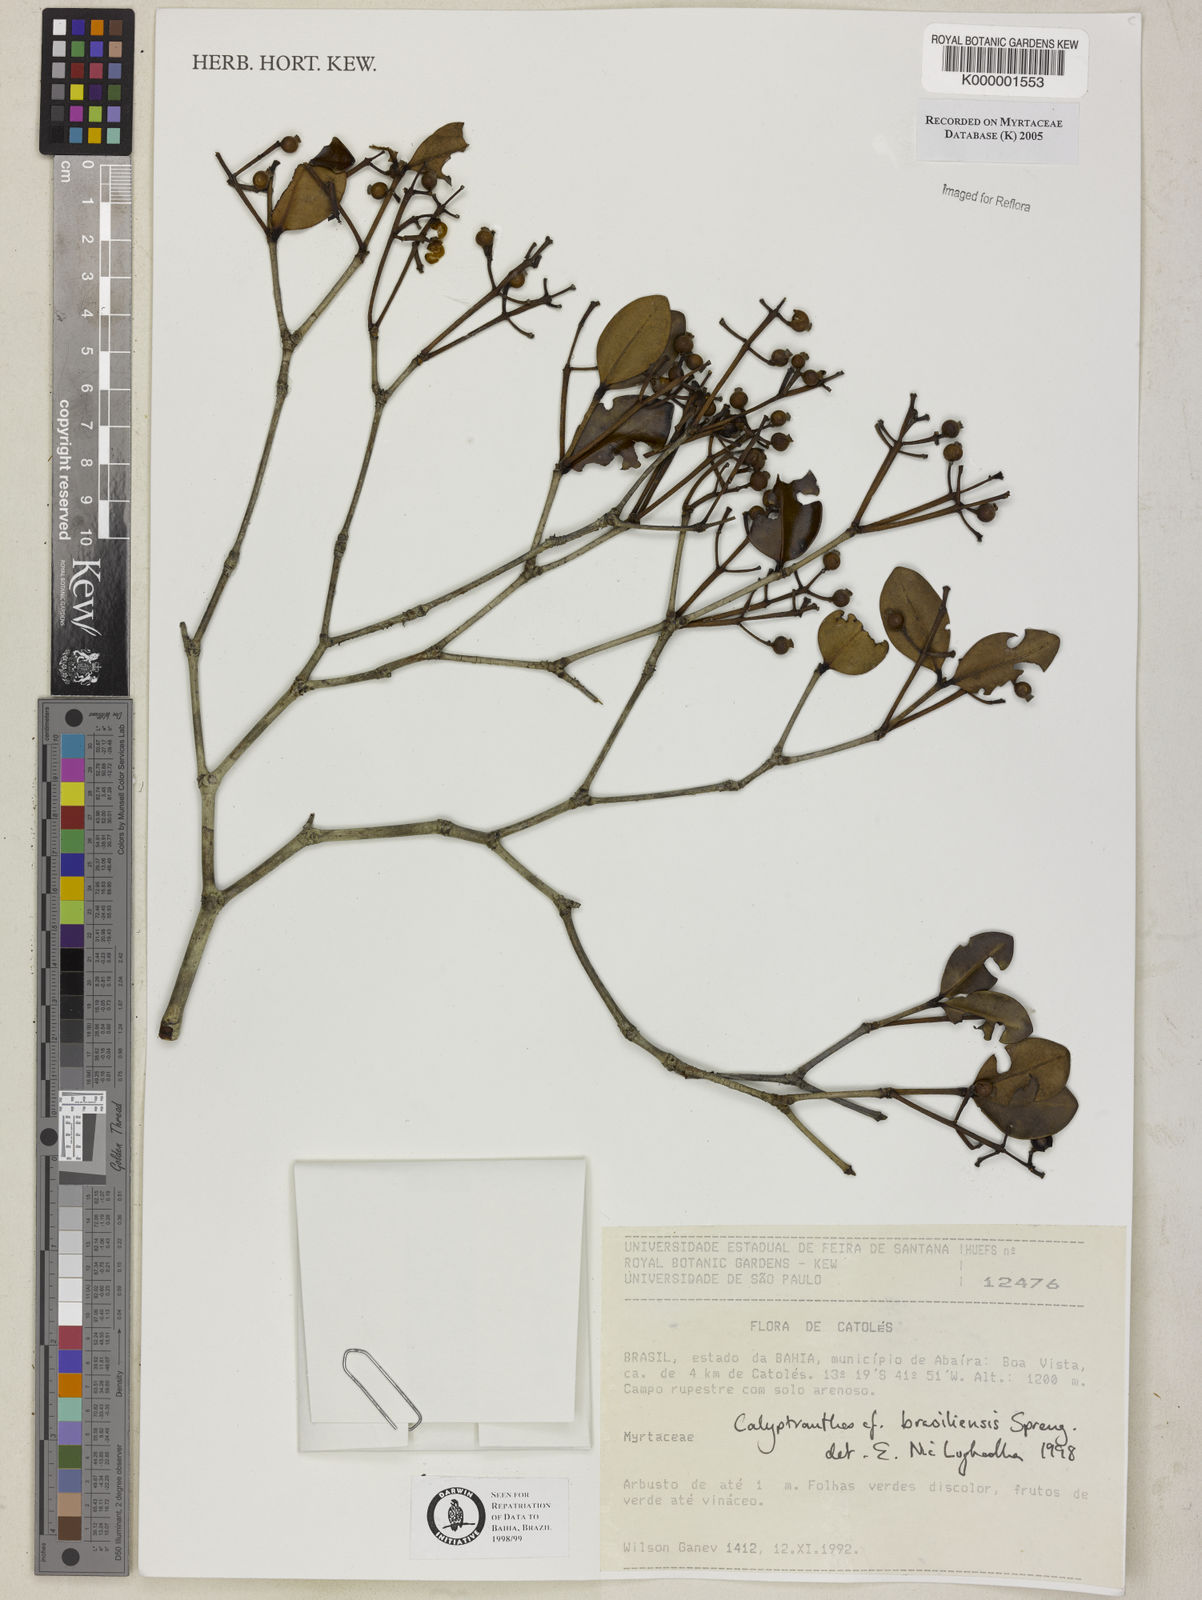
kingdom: Plantae
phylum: Tracheophyta
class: Magnoliopsida
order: Myrtales
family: Myrtaceae
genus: Myrcia
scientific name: Myrcia neobrasiliensis
